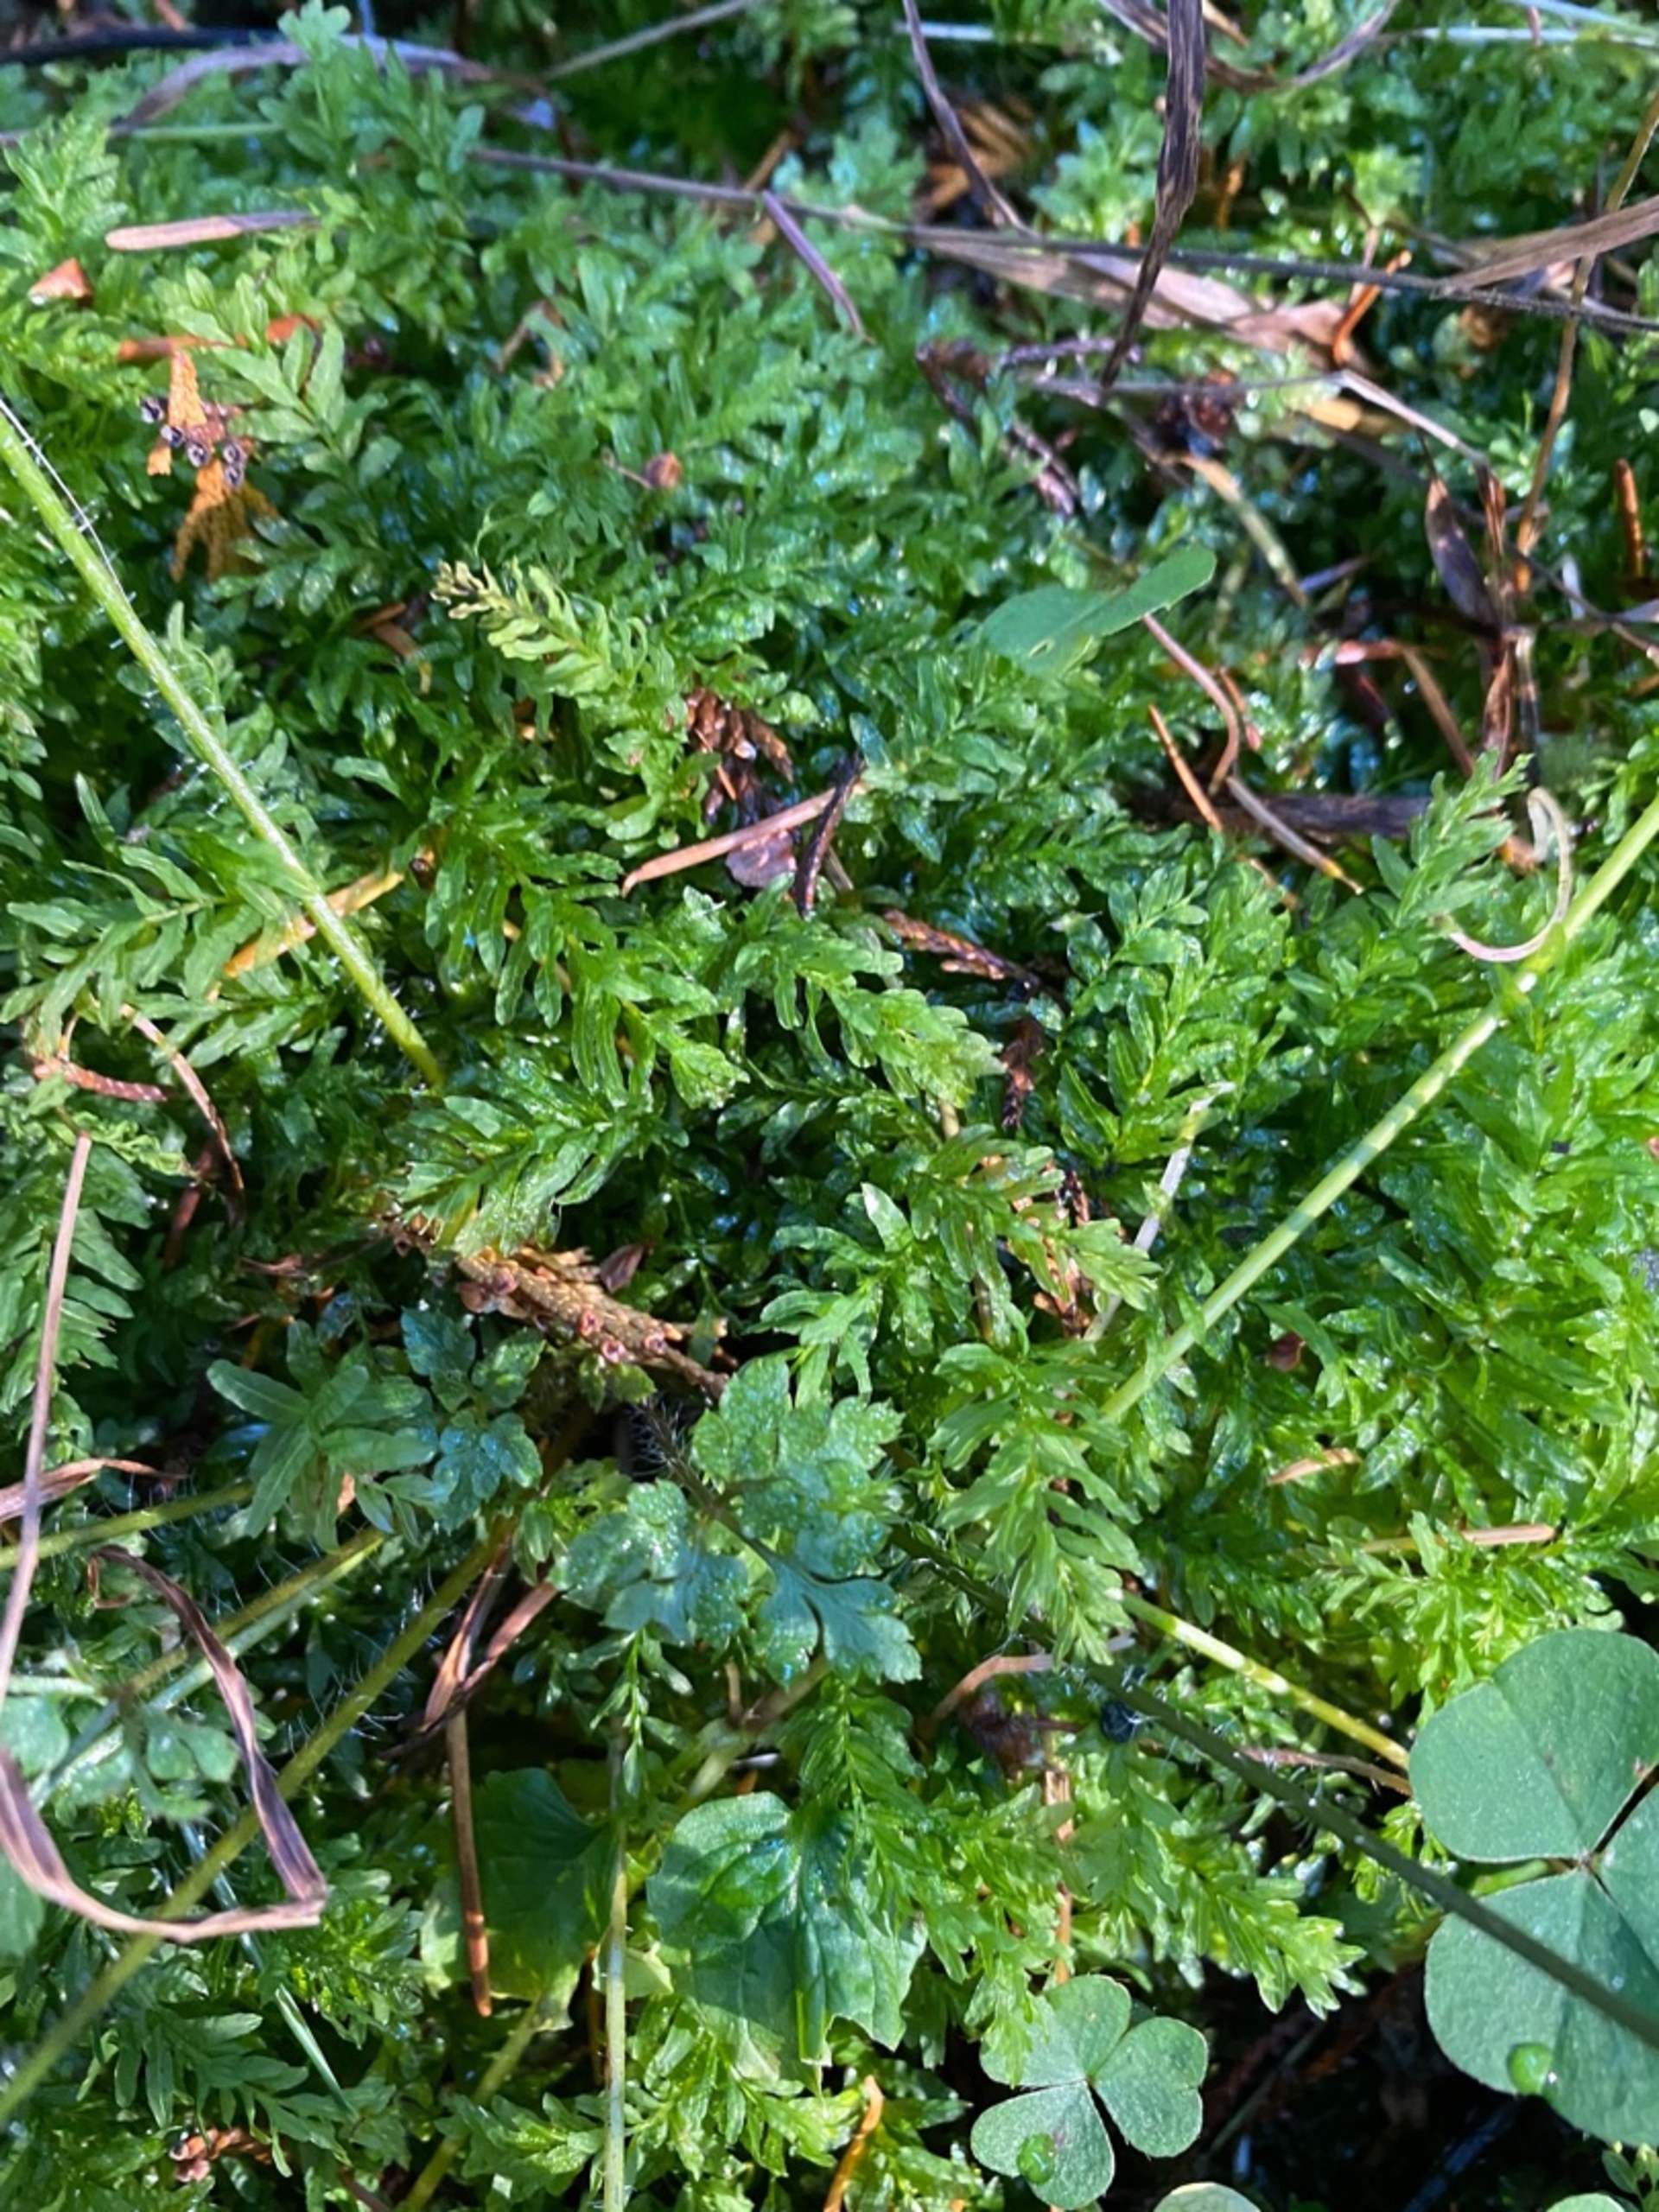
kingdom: Plantae
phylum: Bryophyta
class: Bryopsida
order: Bryales
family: Mniaceae
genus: Plagiomnium
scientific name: Plagiomnium undulatum
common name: Bølget krybstjerne
